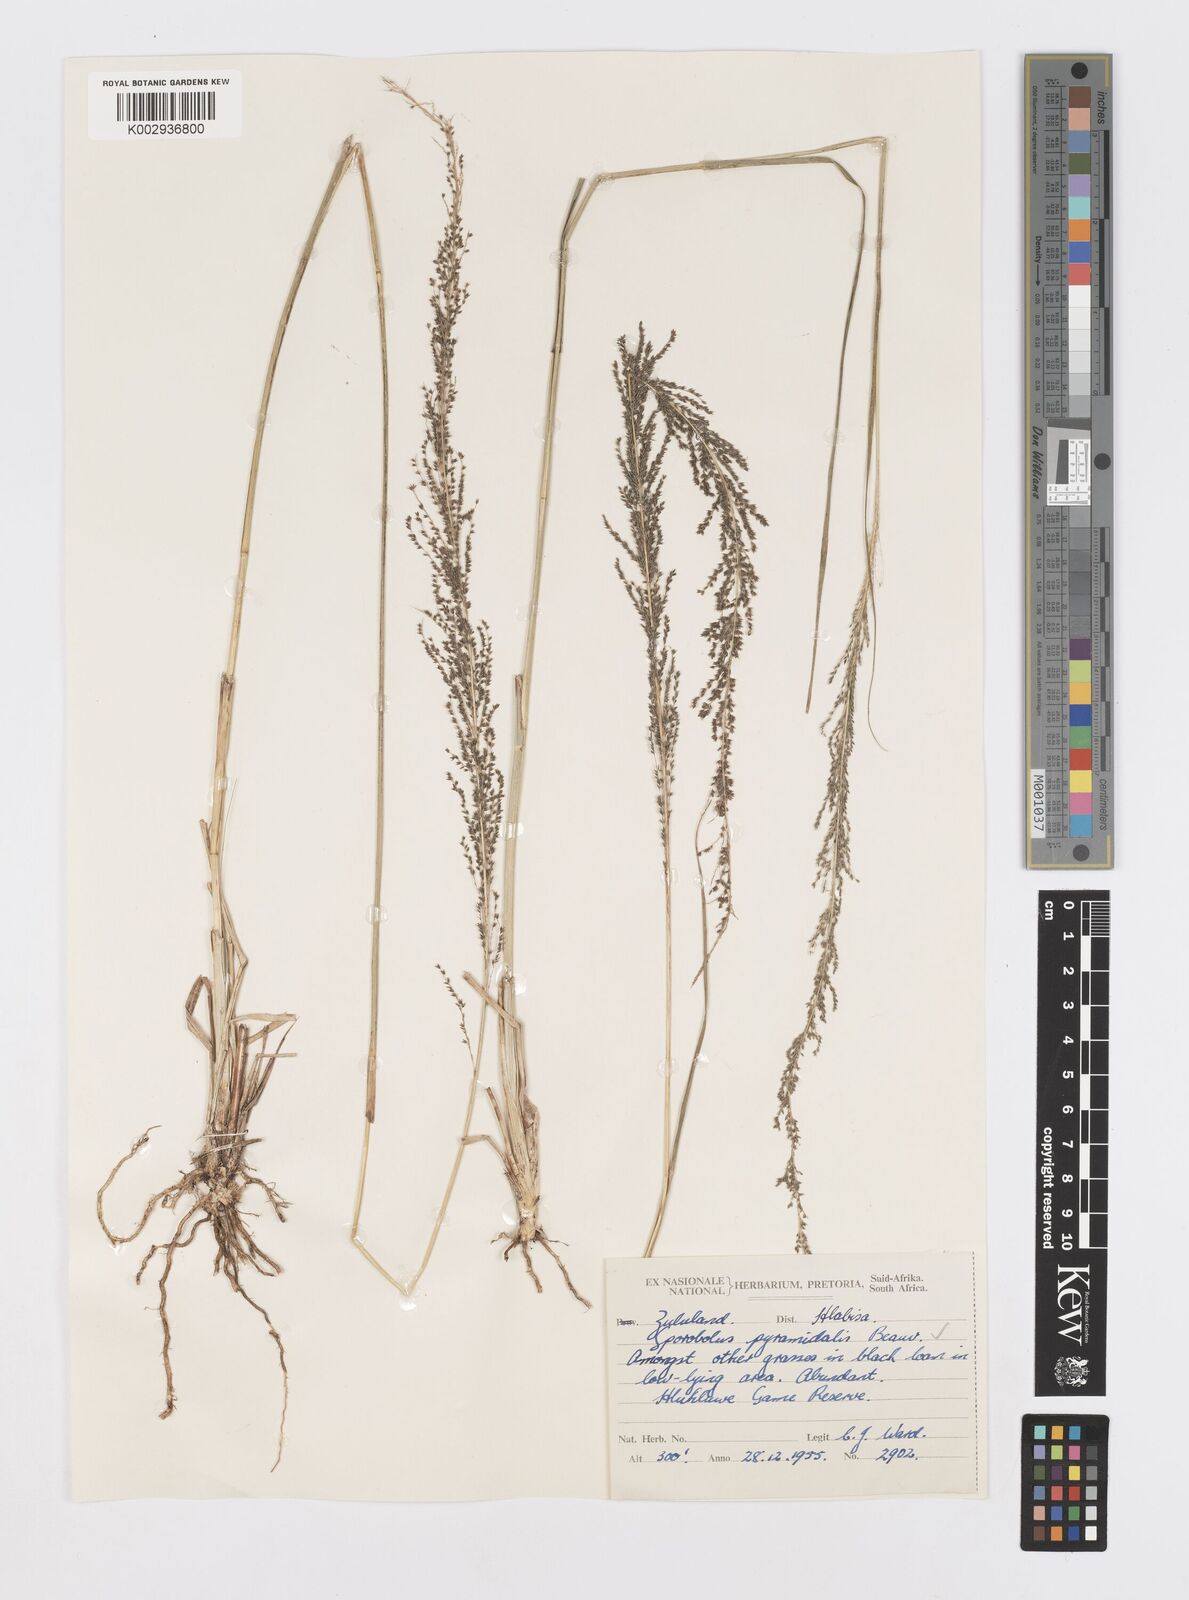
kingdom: Plantae
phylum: Tracheophyta
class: Liliopsida
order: Poales
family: Poaceae
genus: Sporobolus
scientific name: Sporobolus pyramidalis
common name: West indian dropseed
